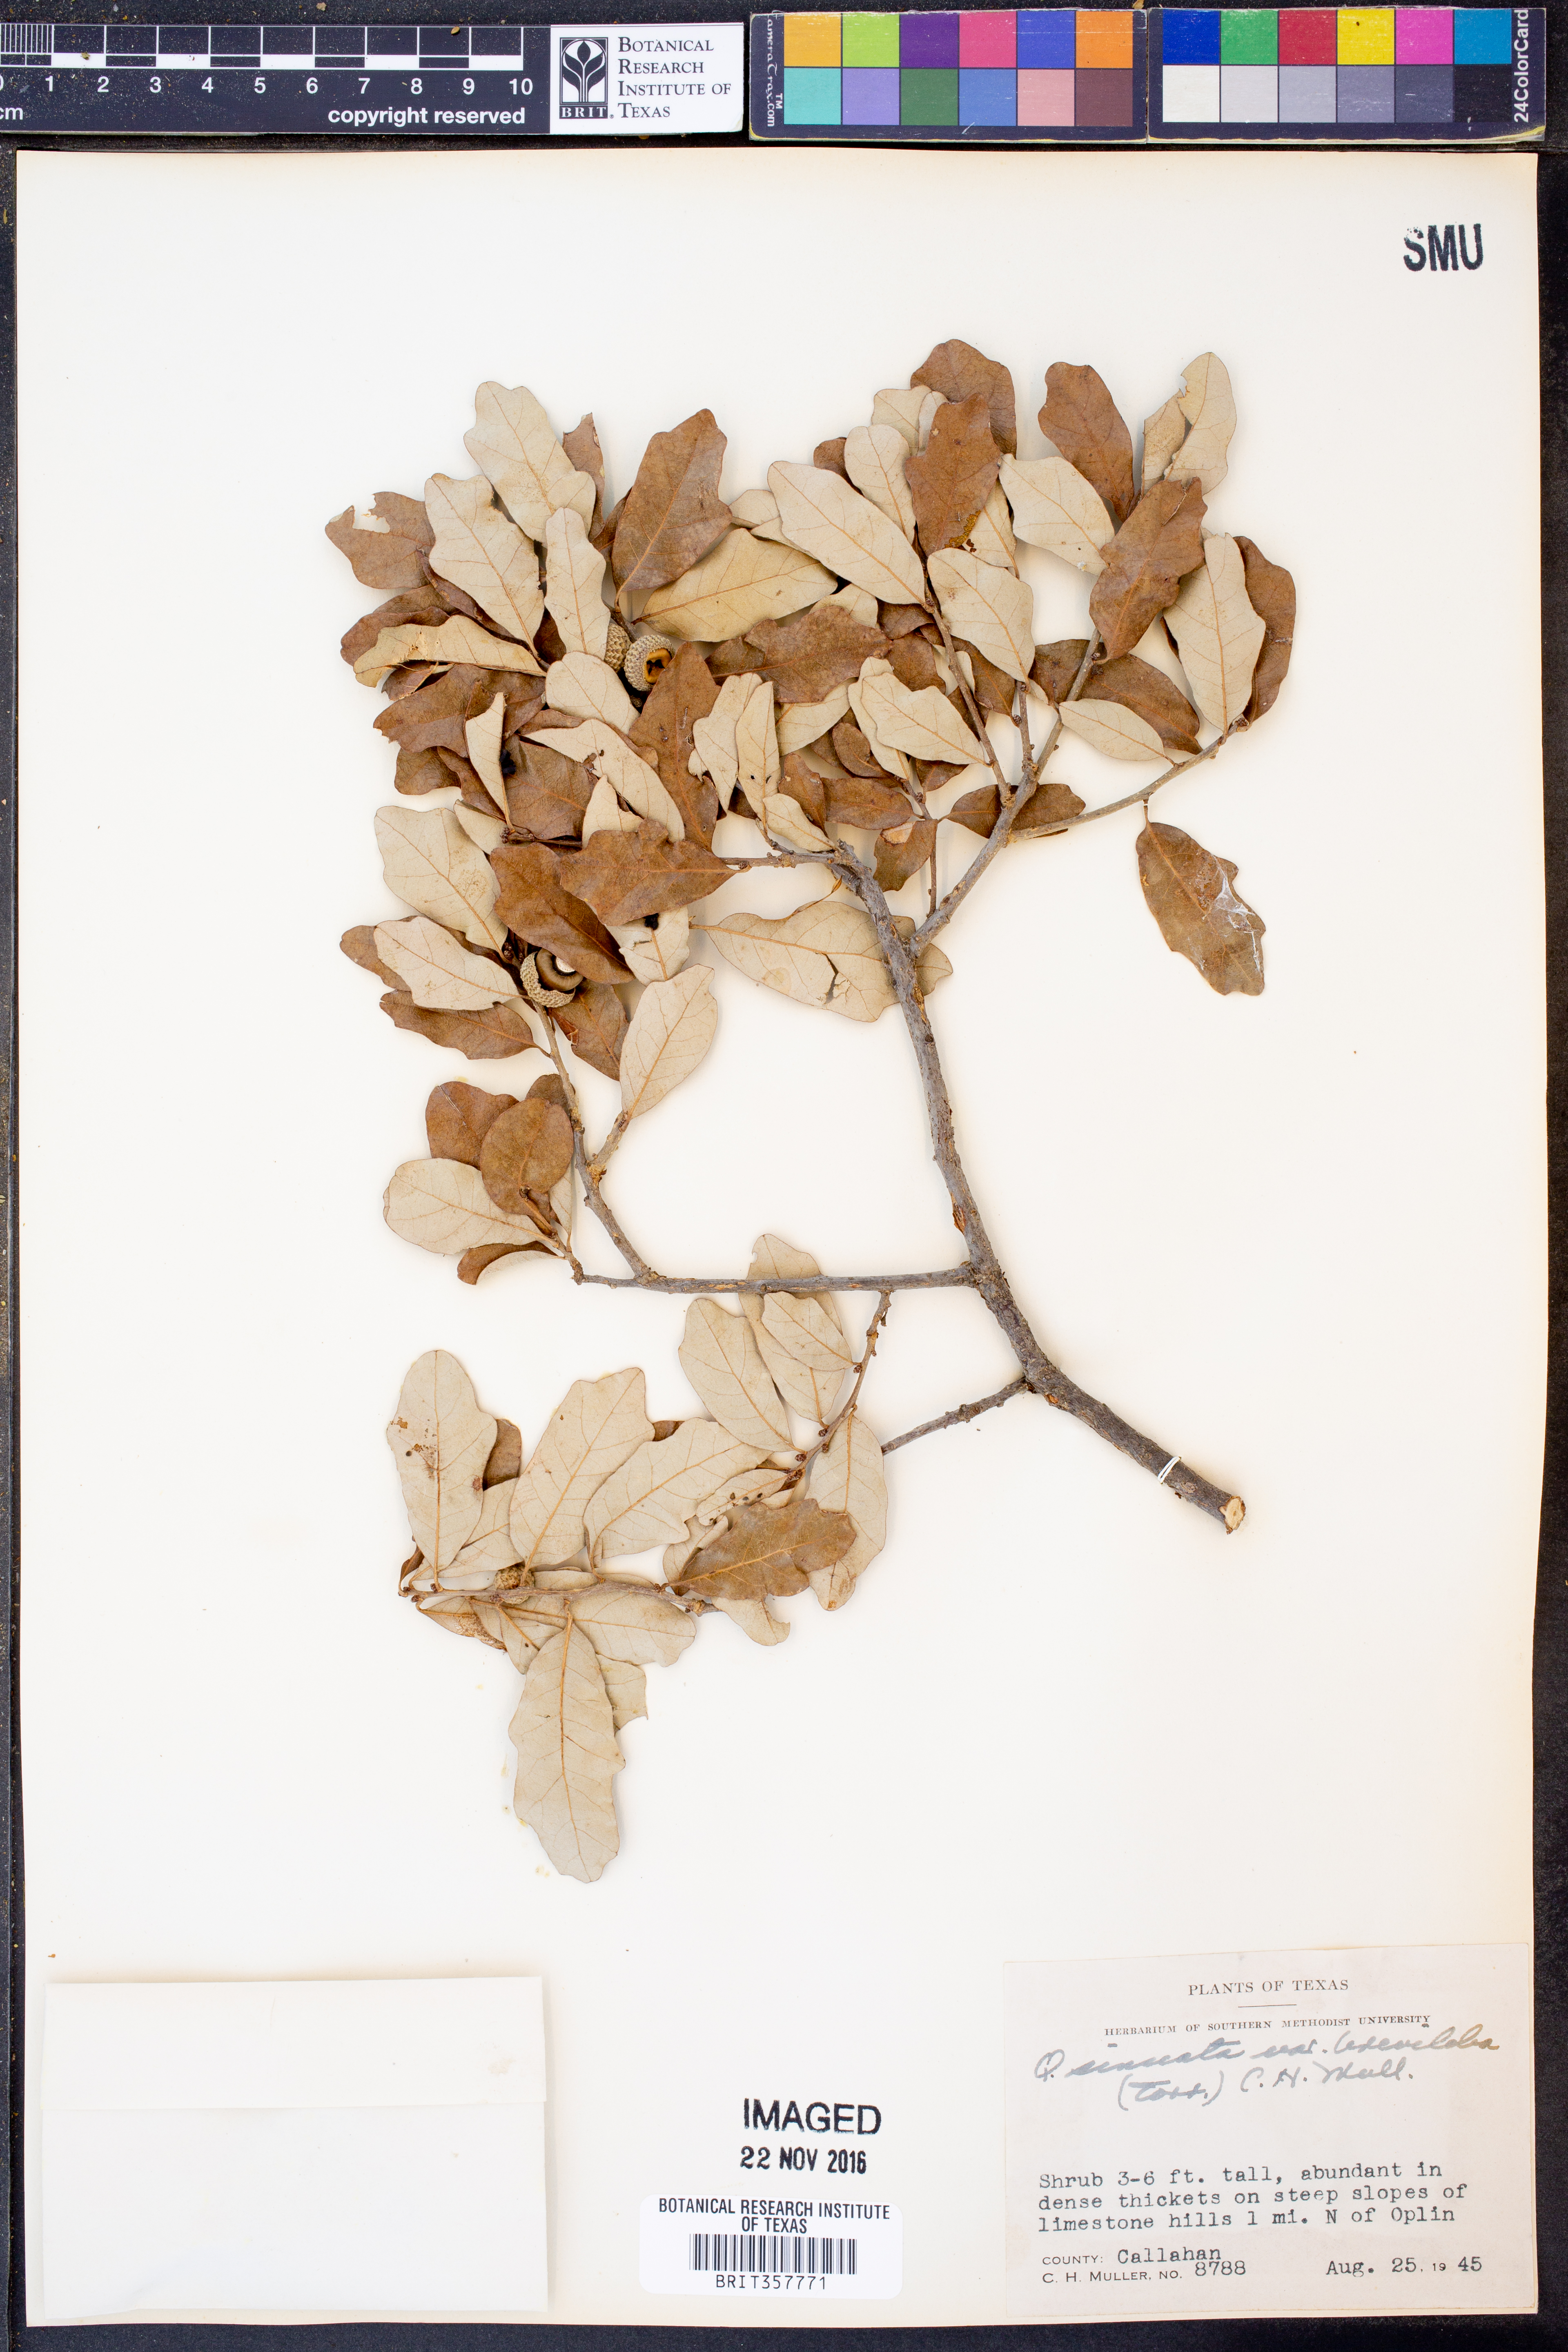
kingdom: Plantae
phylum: Tracheophyta
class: Magnoliopsida
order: Fagales
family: Fagaceae
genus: Quercus
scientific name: Quercus sinuata
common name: Durand oak
